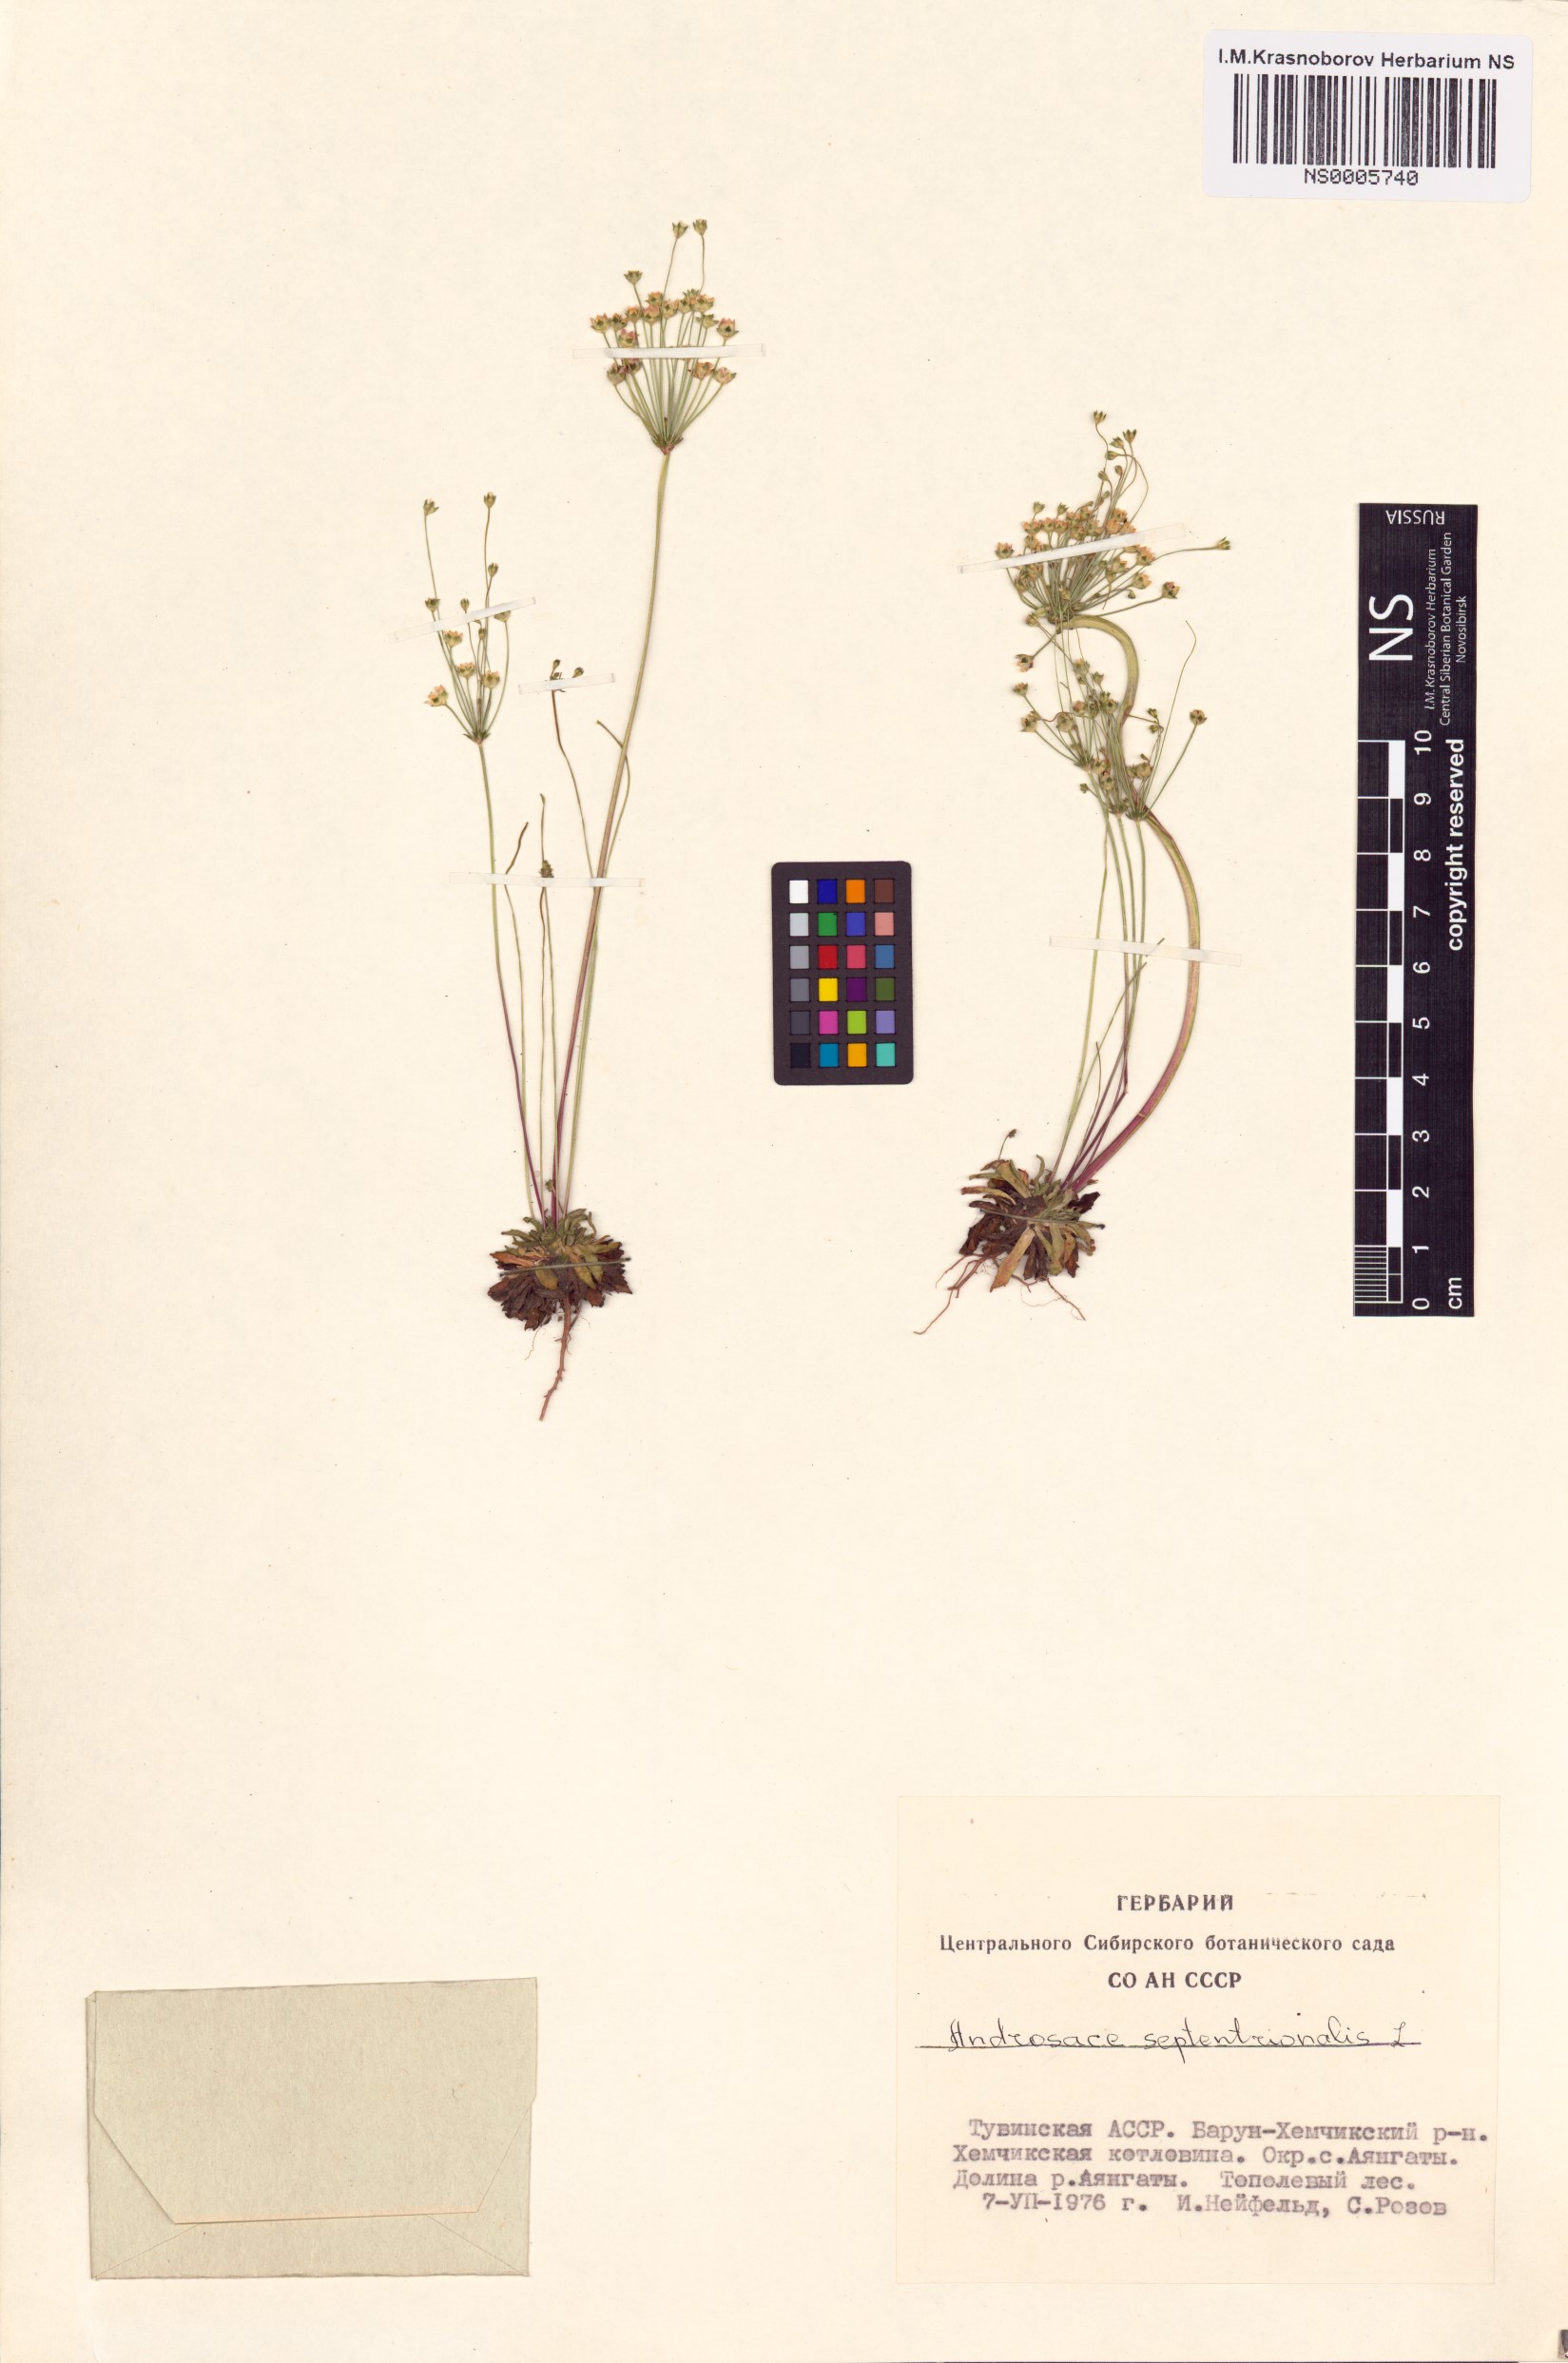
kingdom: Plantae
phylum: Tracheophyta
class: Magnoliopsida
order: Ericales
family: Primulaceae
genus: Androsace
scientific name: Androsace septentrionalis
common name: Hairy northern fairy-candelabra
